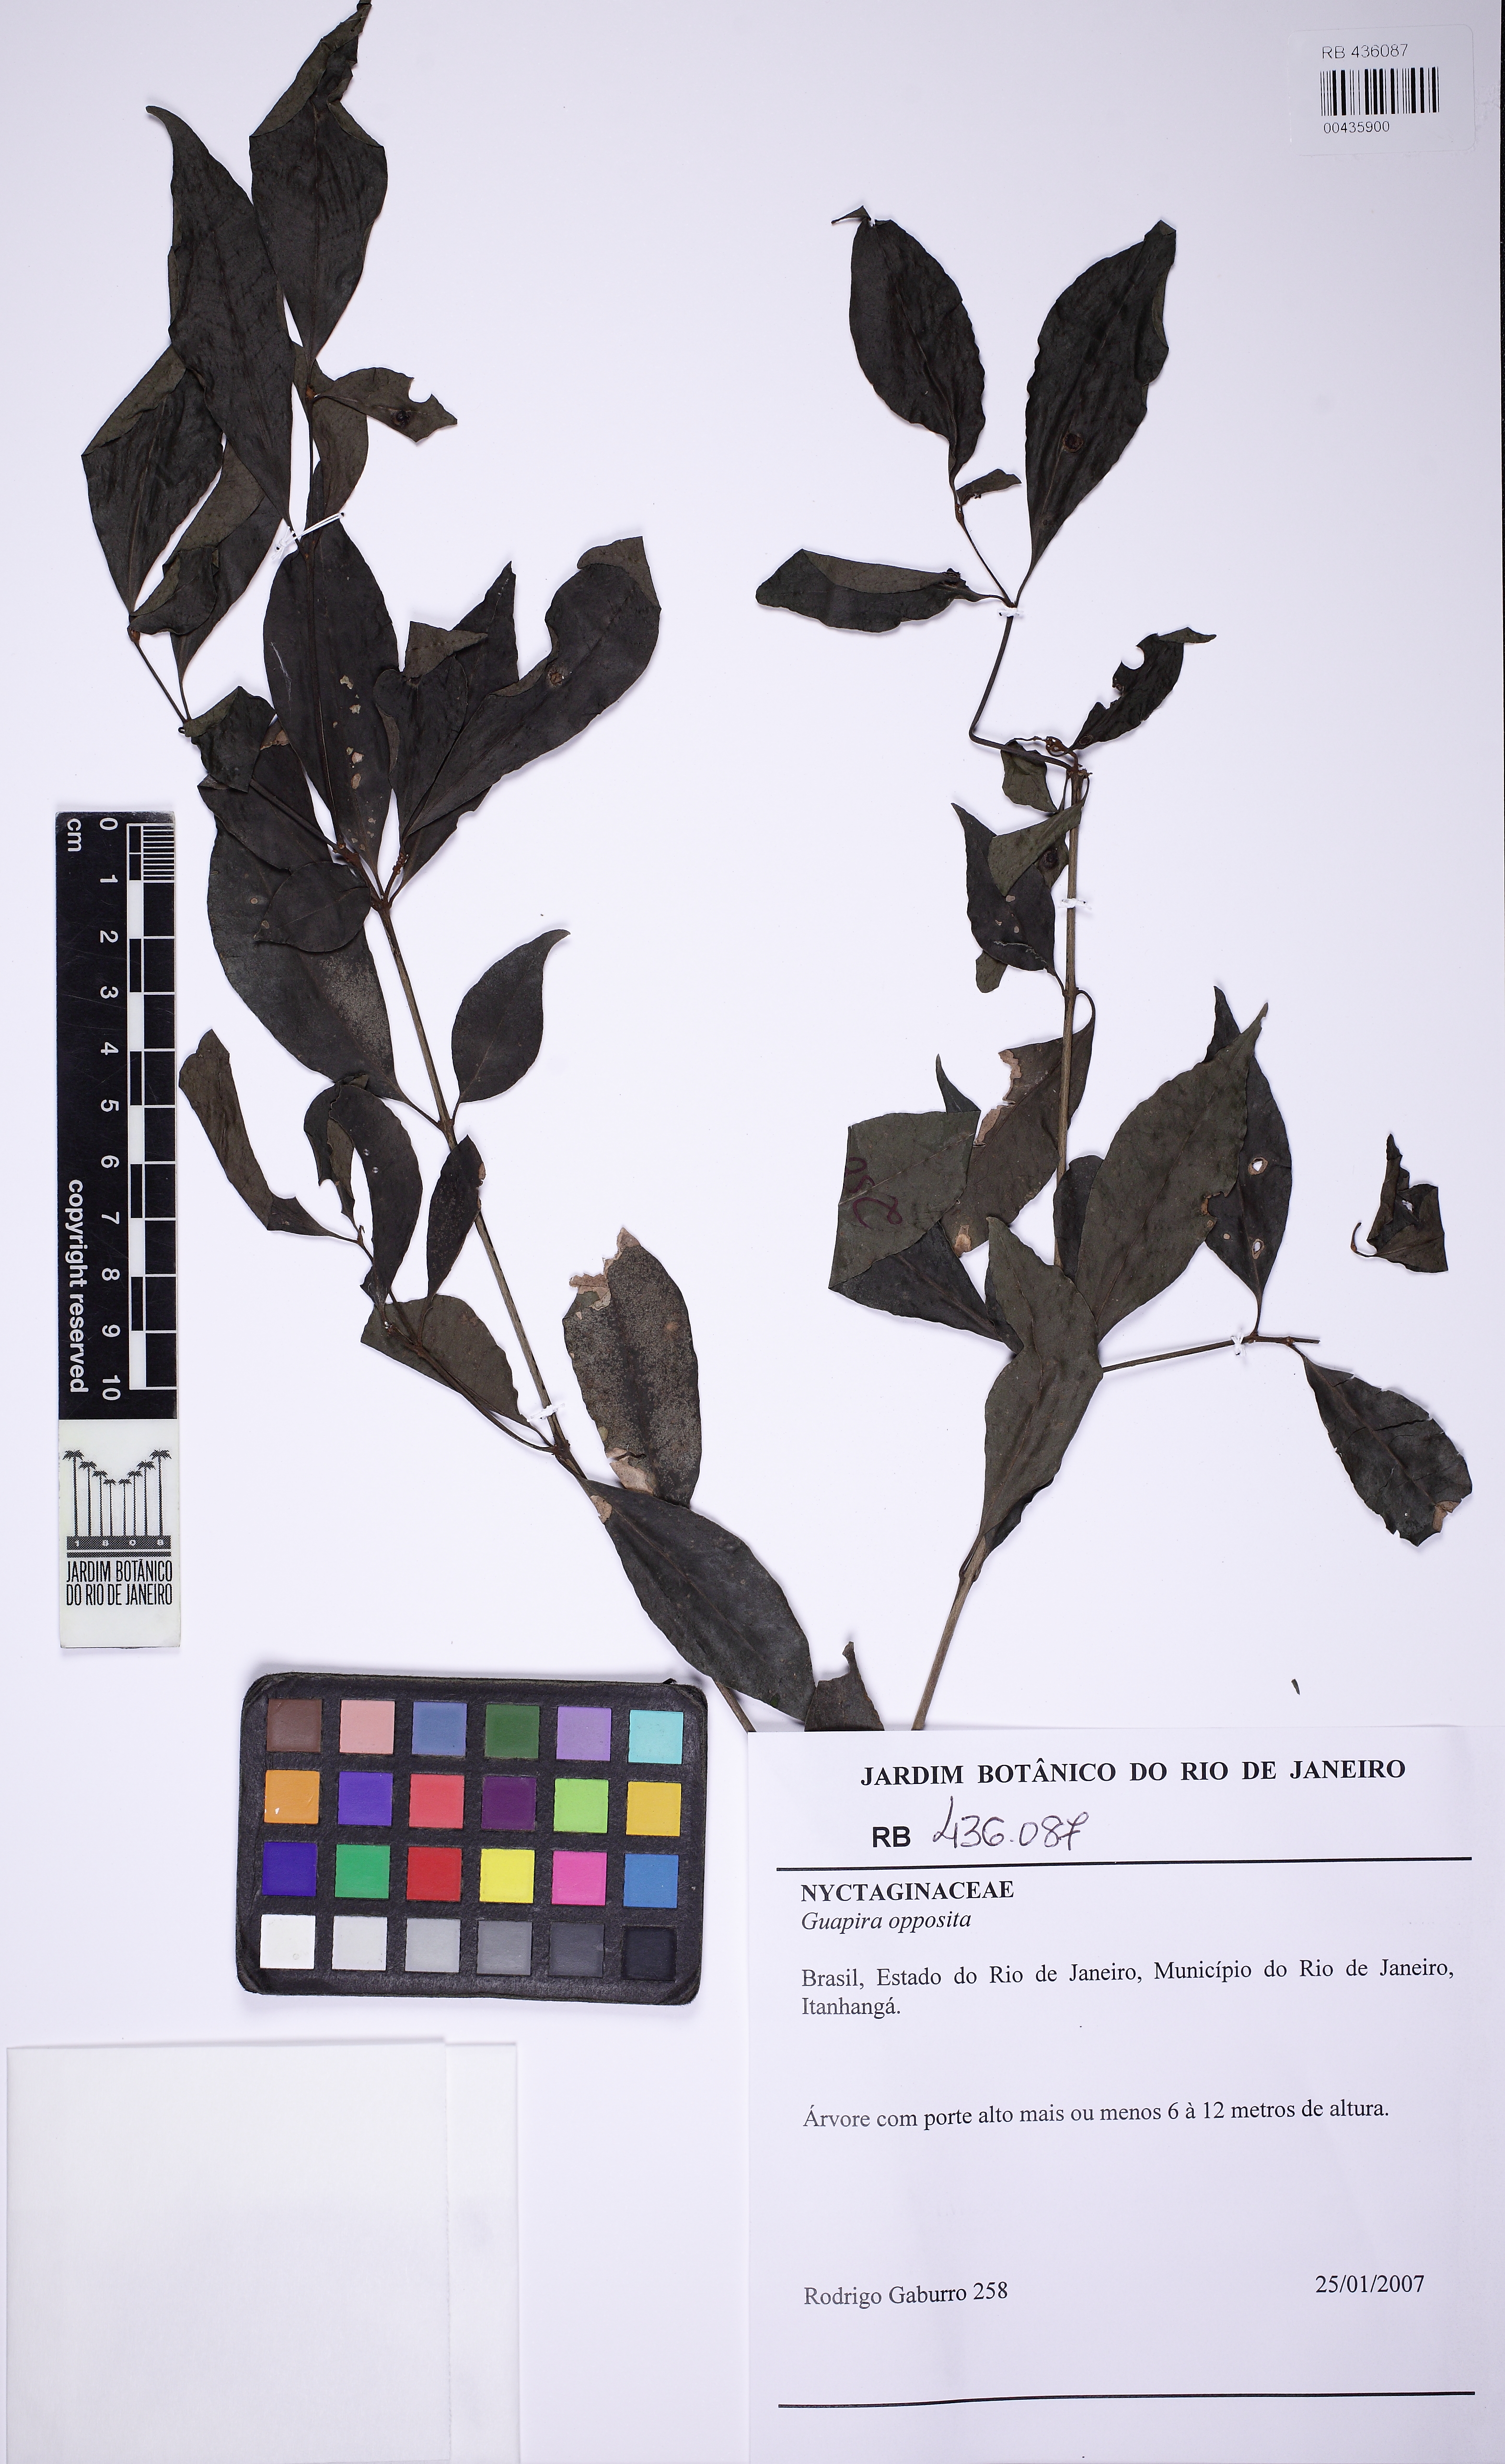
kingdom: Plantae
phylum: Tracheophyta
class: Magnoliopsida
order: Caryophyllales
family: Nyctaginaceae
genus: Guapira
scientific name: Guapira opposita
